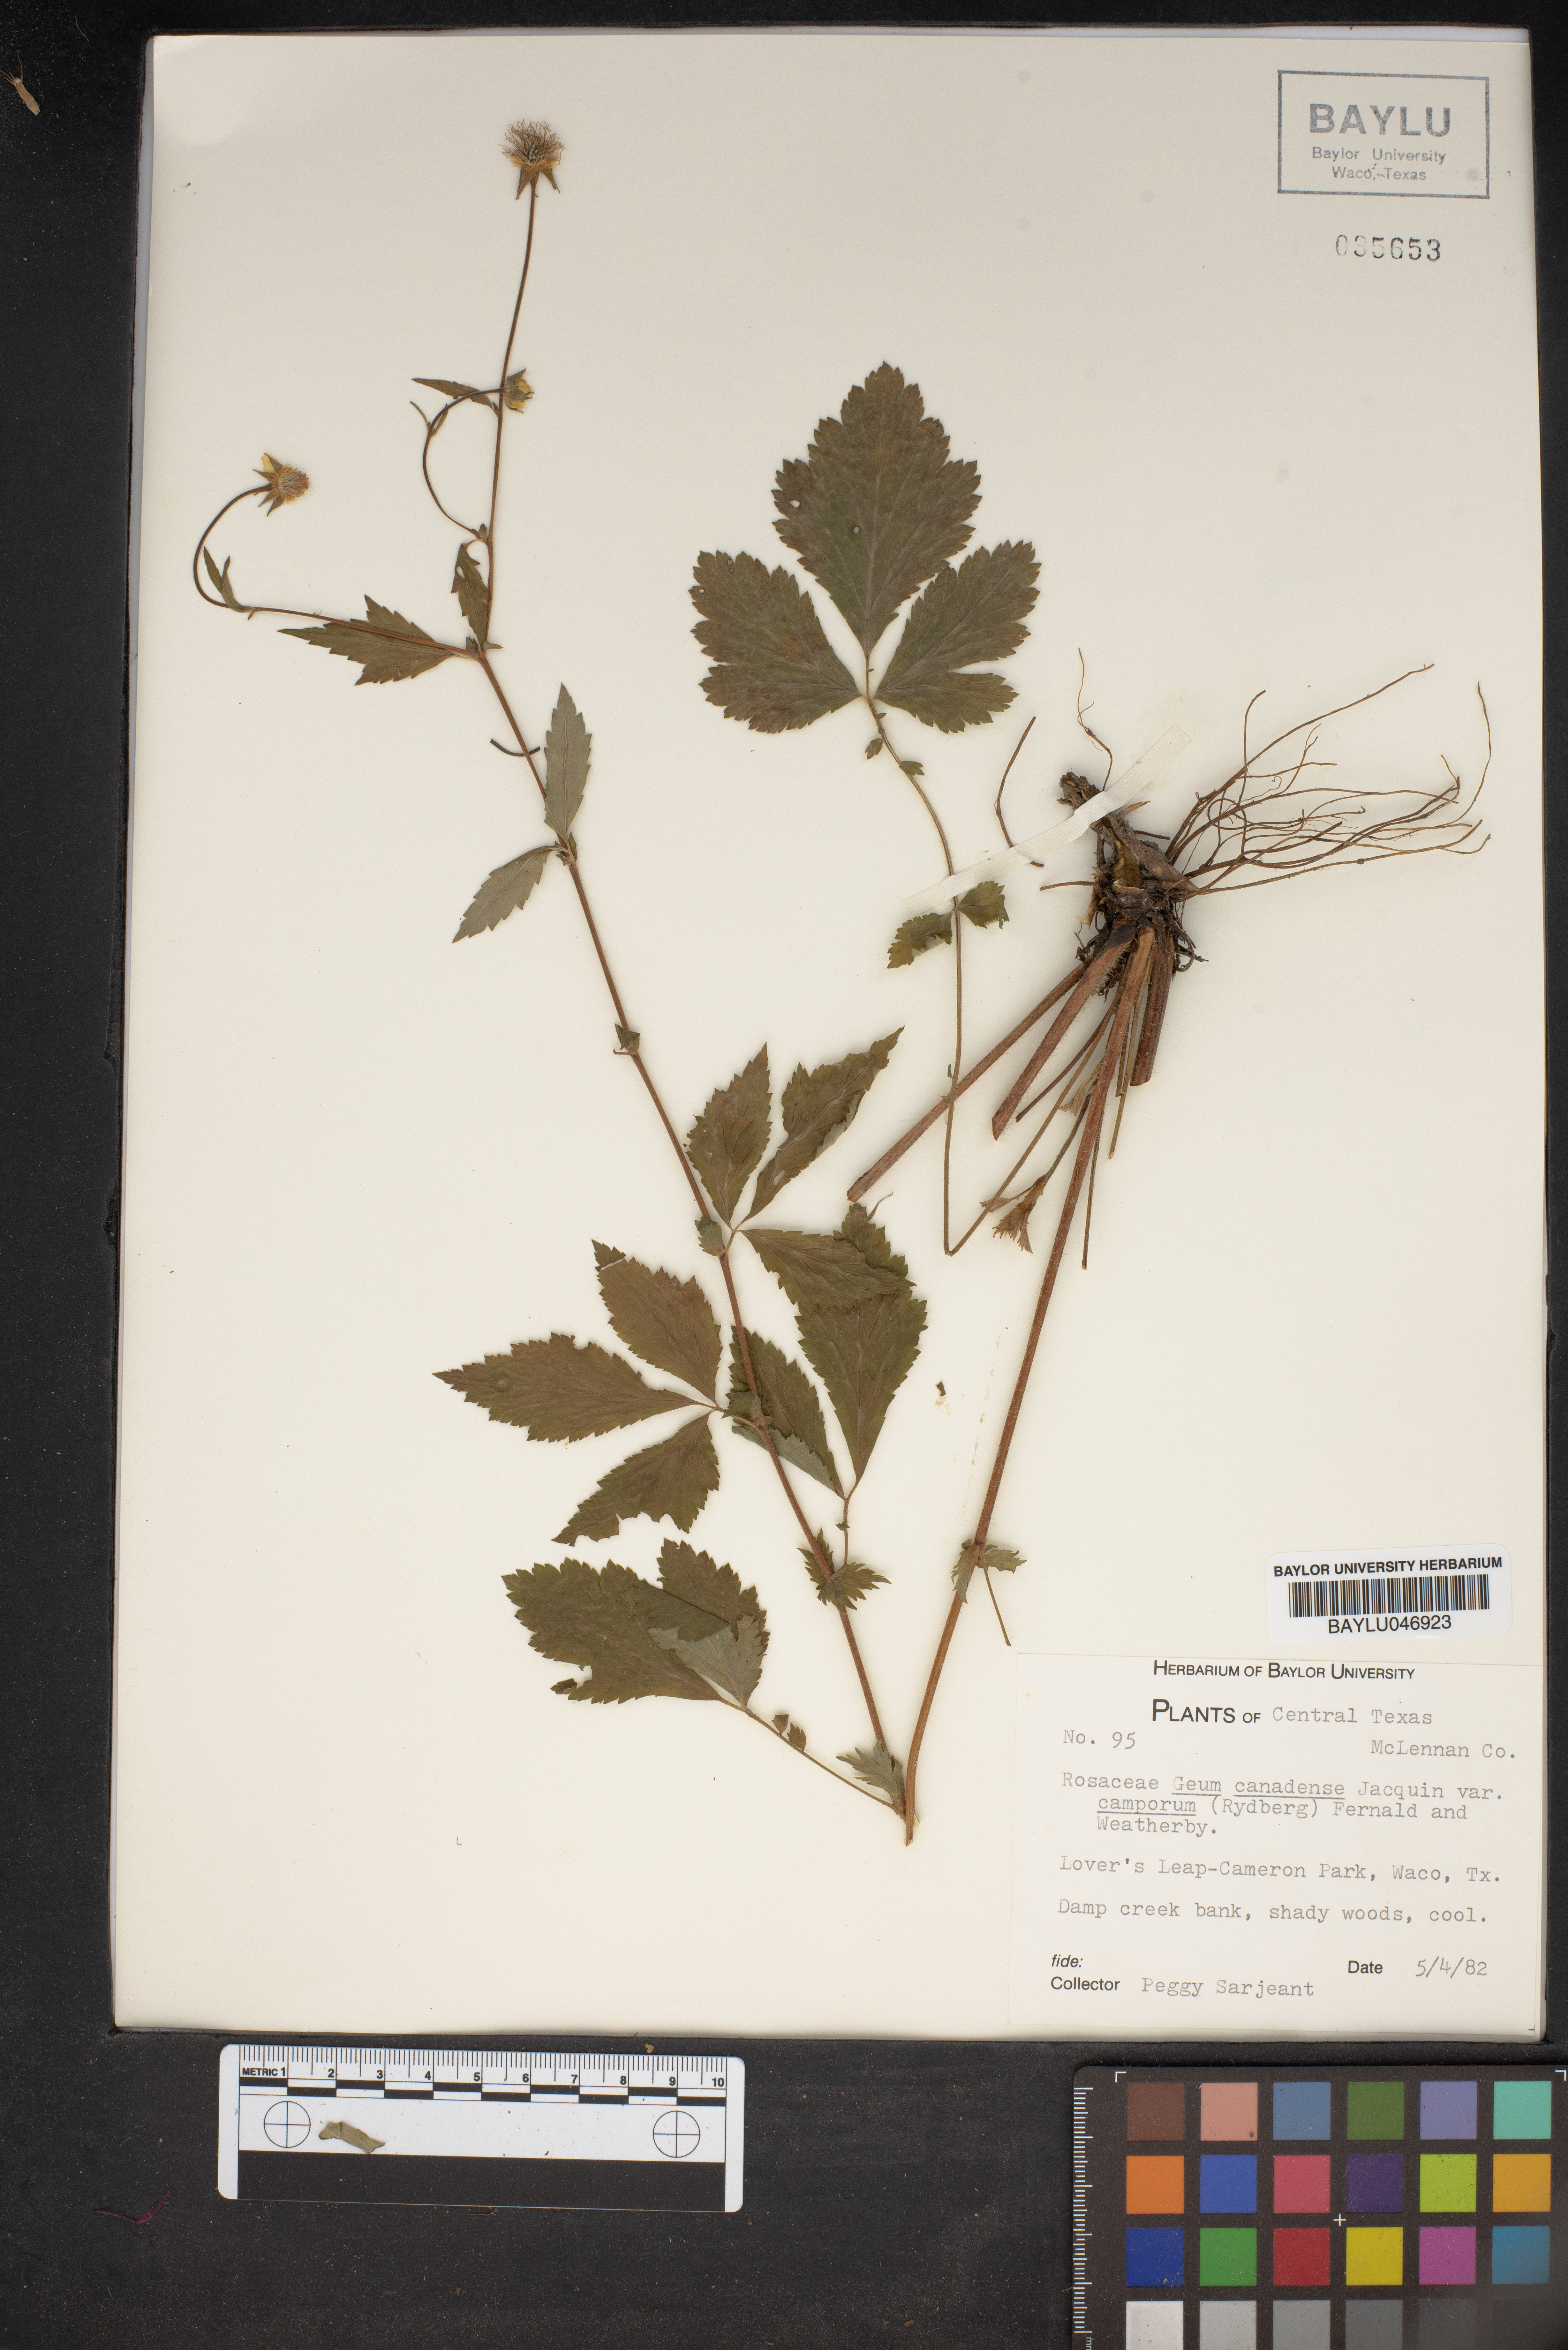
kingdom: Plantae
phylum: Tracheophyta
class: Magnoliopsida
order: Rosales
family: Rosaceae
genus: Geum
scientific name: Geum canadense
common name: White avens
